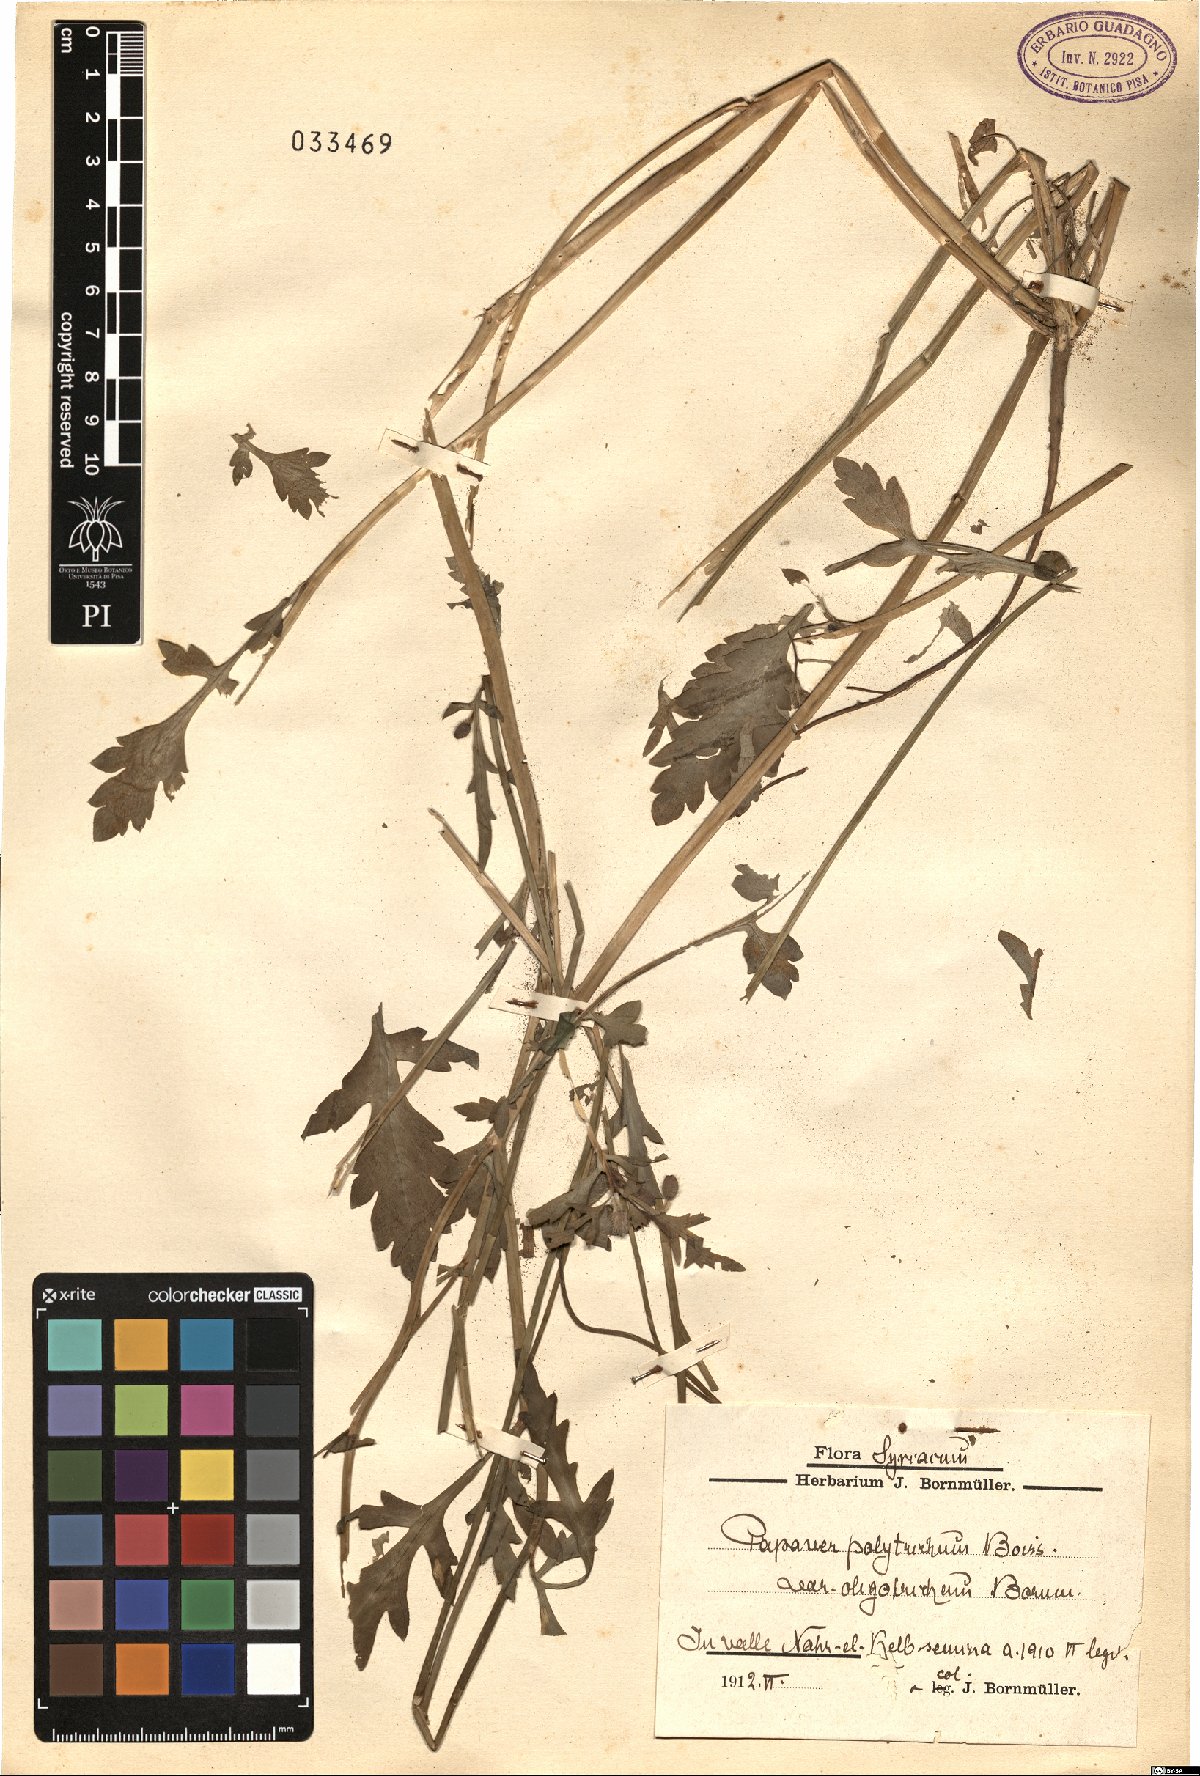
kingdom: Plantae
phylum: Tracheophyta
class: Magnoliopsida
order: Ranunculales
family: Papaveraceae
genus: Papaver
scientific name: Papaver rhoeas
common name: Corn poppy
